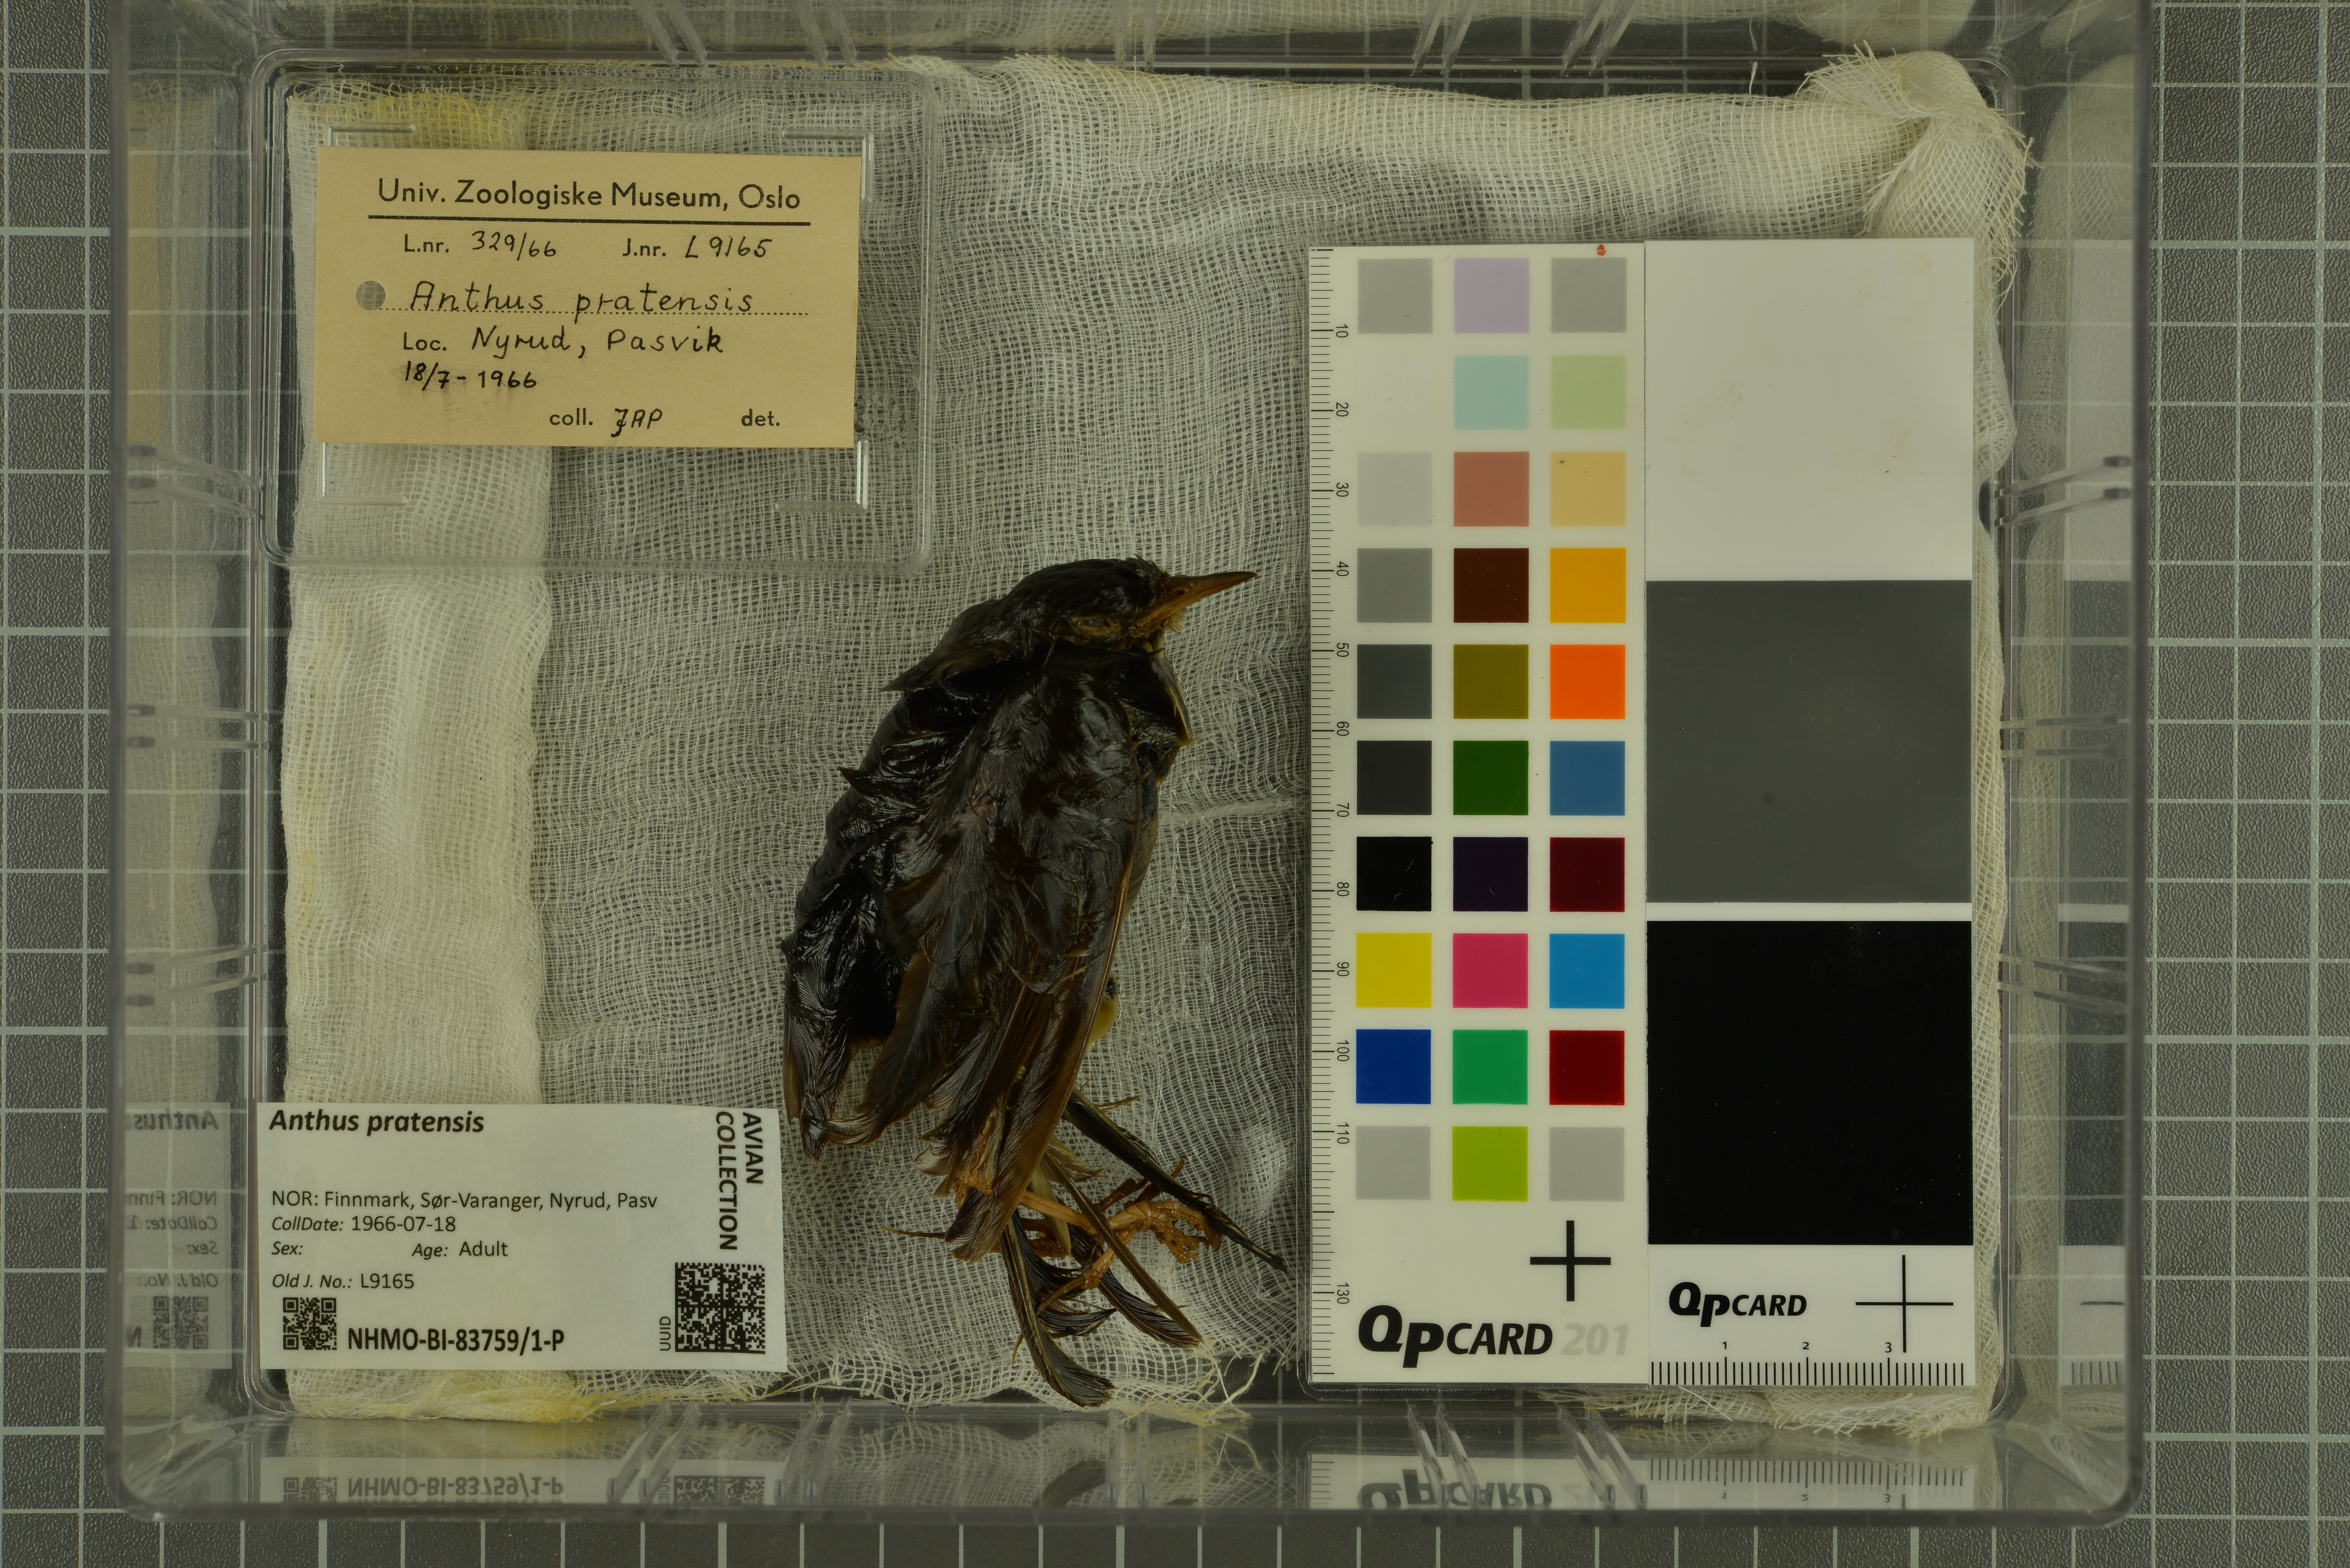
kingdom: Animalia
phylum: Chordata
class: Aves
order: Passeriformes
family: Motacillidae
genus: Anthus
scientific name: Anthus pratensis
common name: Meadow pipit
